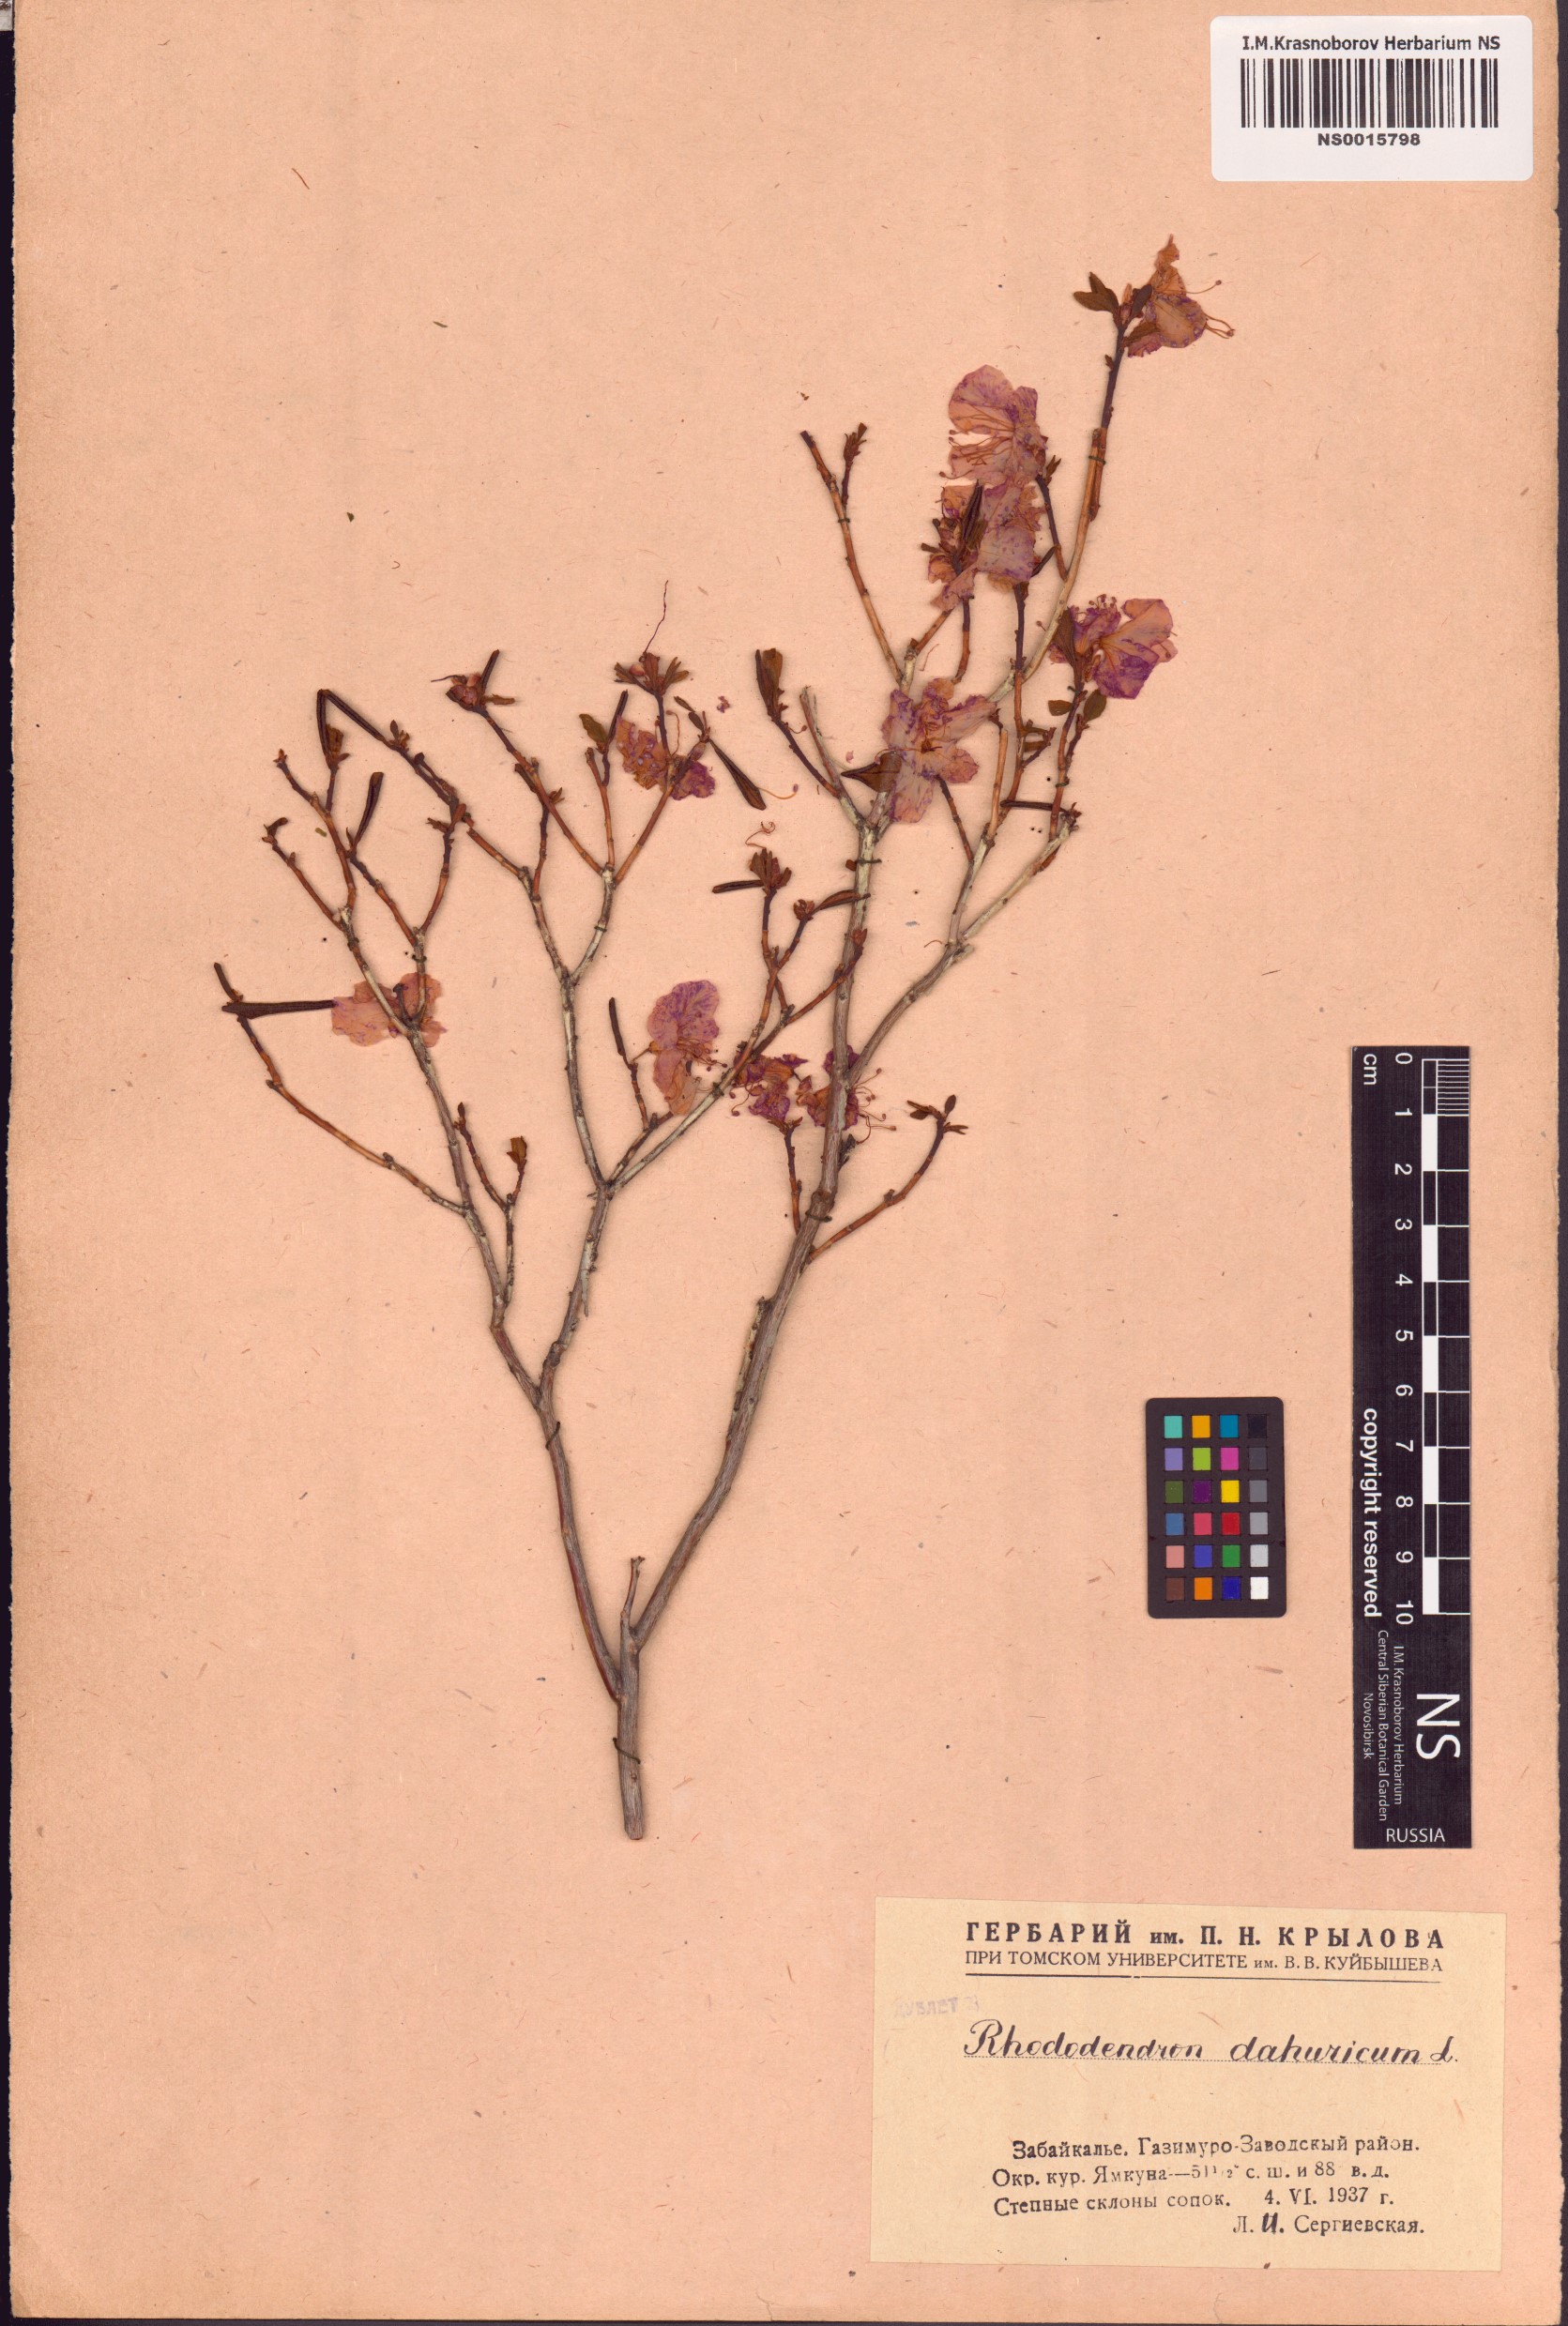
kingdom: Plantae
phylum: Tracheophyta
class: Magnoliopsida
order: Ericales
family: Ericaceae
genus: Rhododendron
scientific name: Rhododendron dauricum
